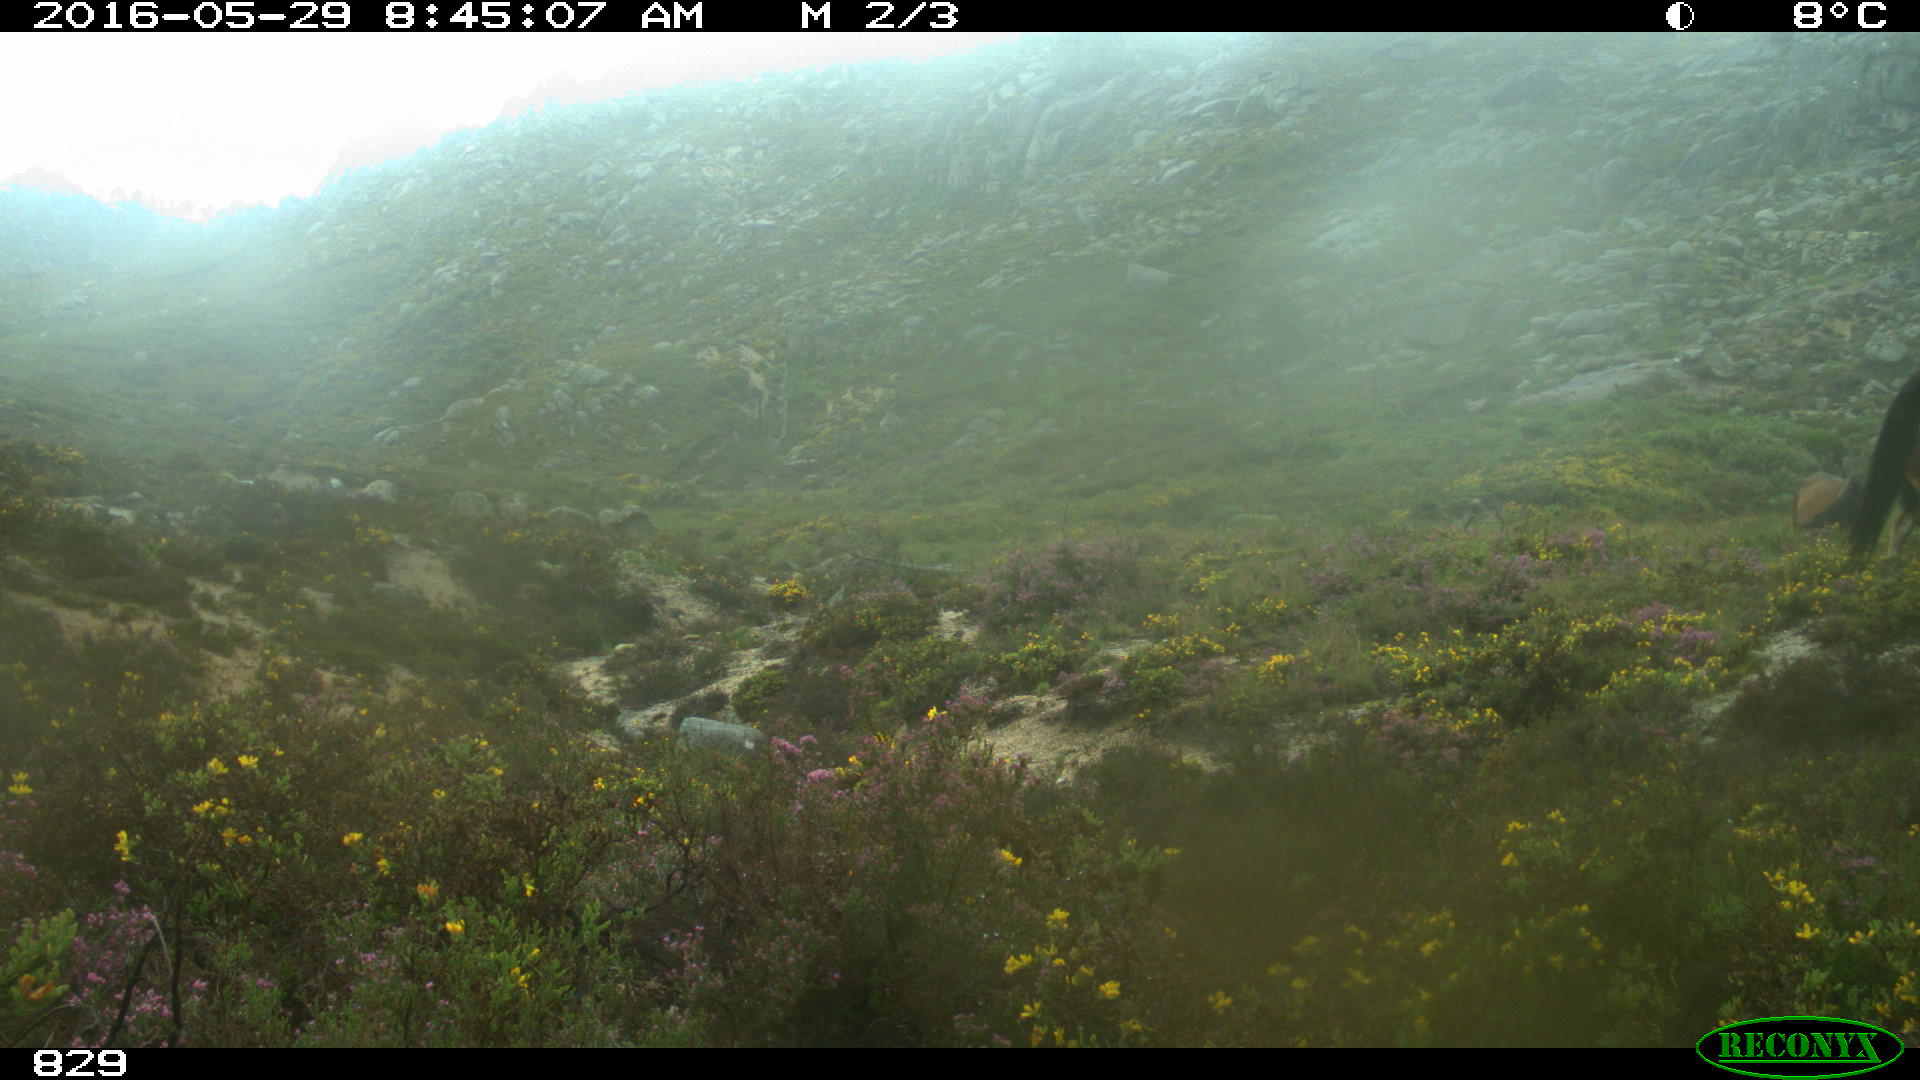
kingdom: Animalia
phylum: Chordata
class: Mammalia
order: Perissodactyla
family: Equidae
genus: Equus
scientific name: Equus caballus
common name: Horse
